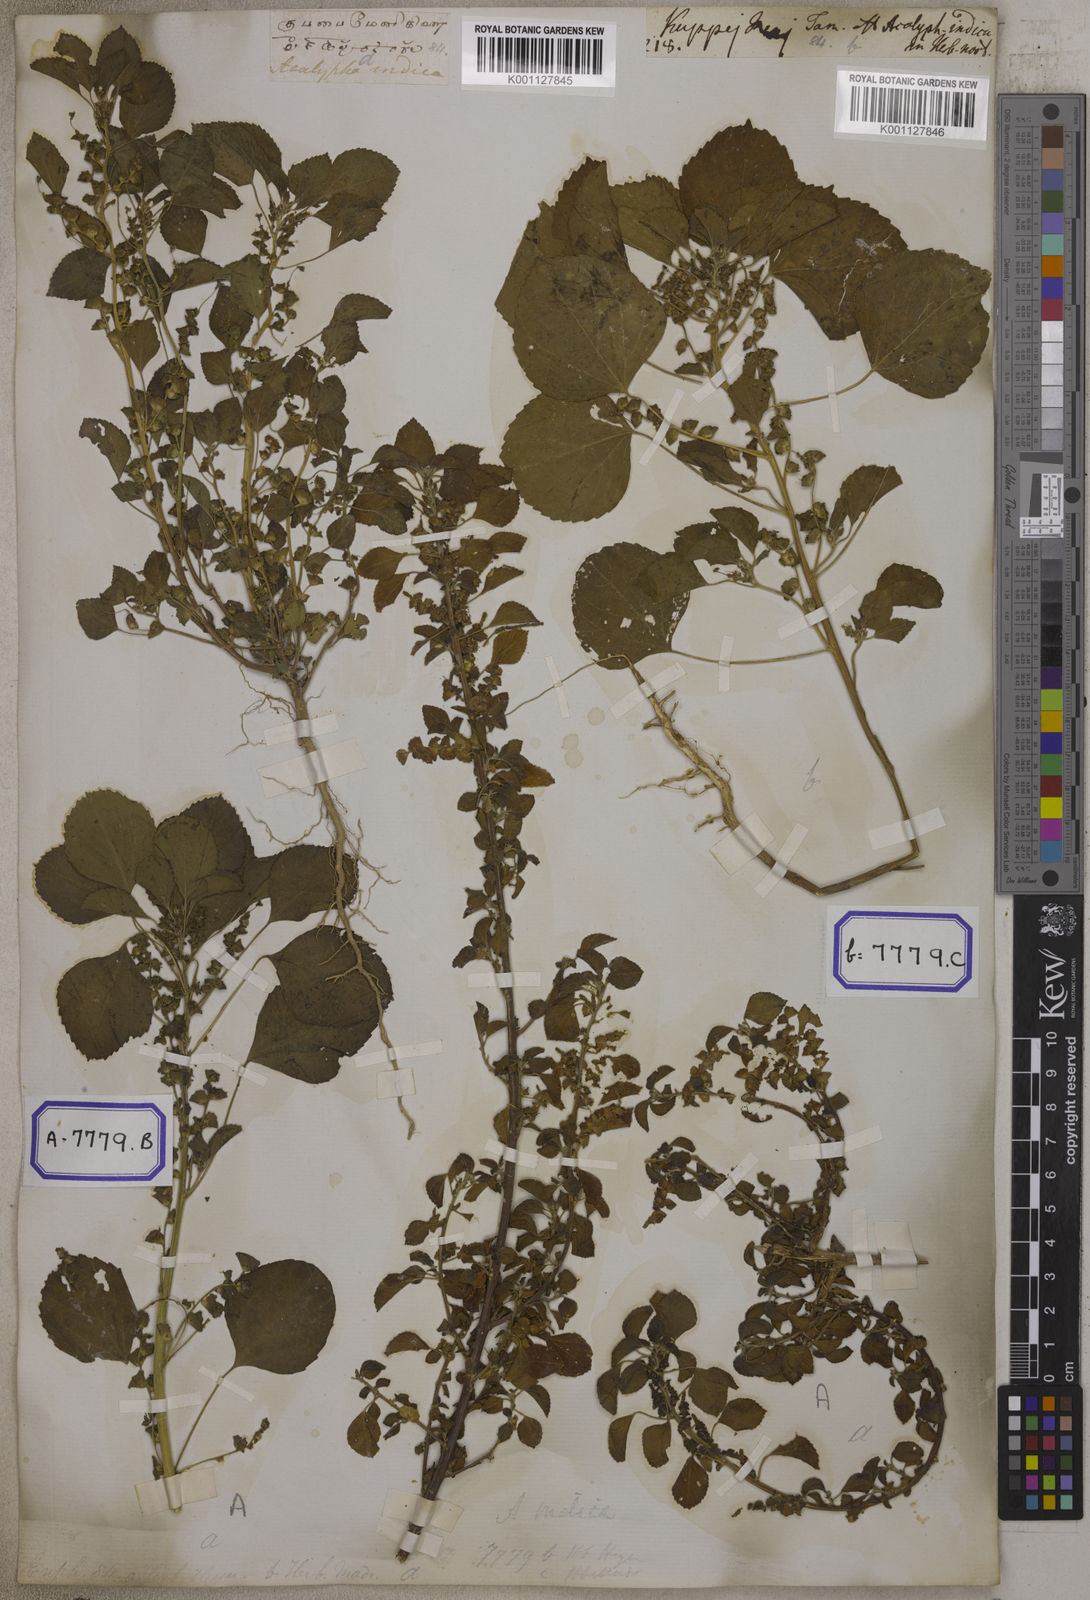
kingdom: Plantae
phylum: Tracheophyta
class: Magnoliopsida
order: Malpighiales
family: Euphorbiaceae
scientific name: Euphorbiaceae
